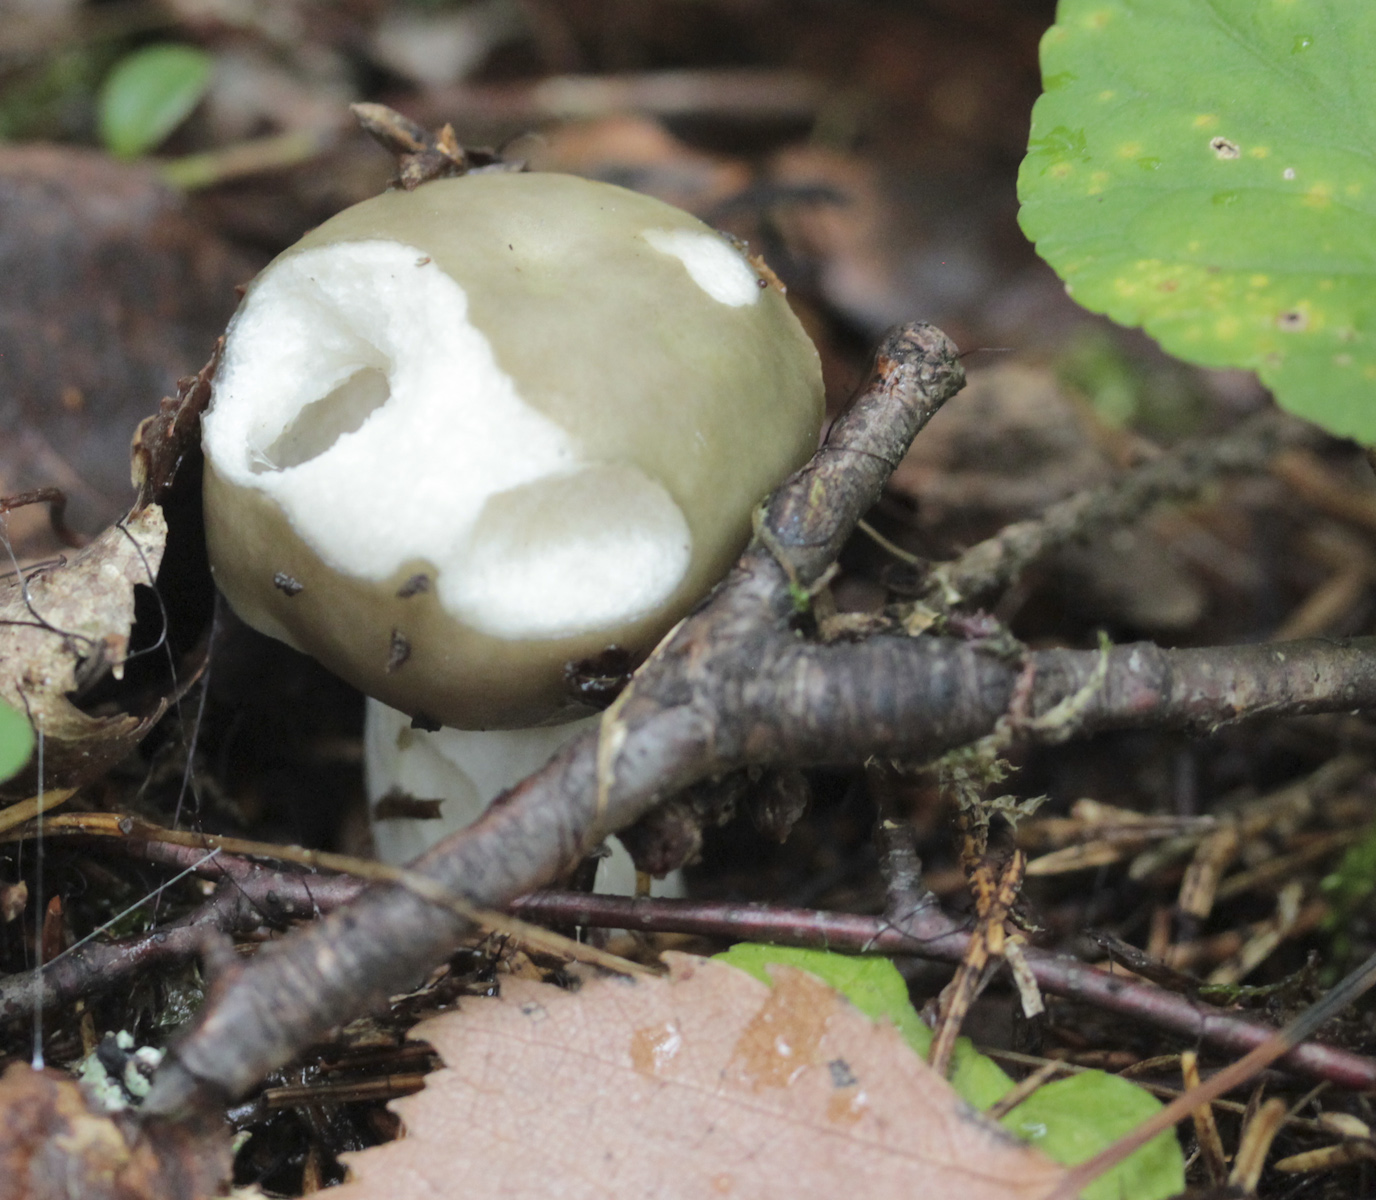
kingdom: Fungi
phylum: Basidiomycota
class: Agaricomycetes
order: Russulales
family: Russulaceae
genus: Russula
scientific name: Russula aeruginea
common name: Green brittlegill
